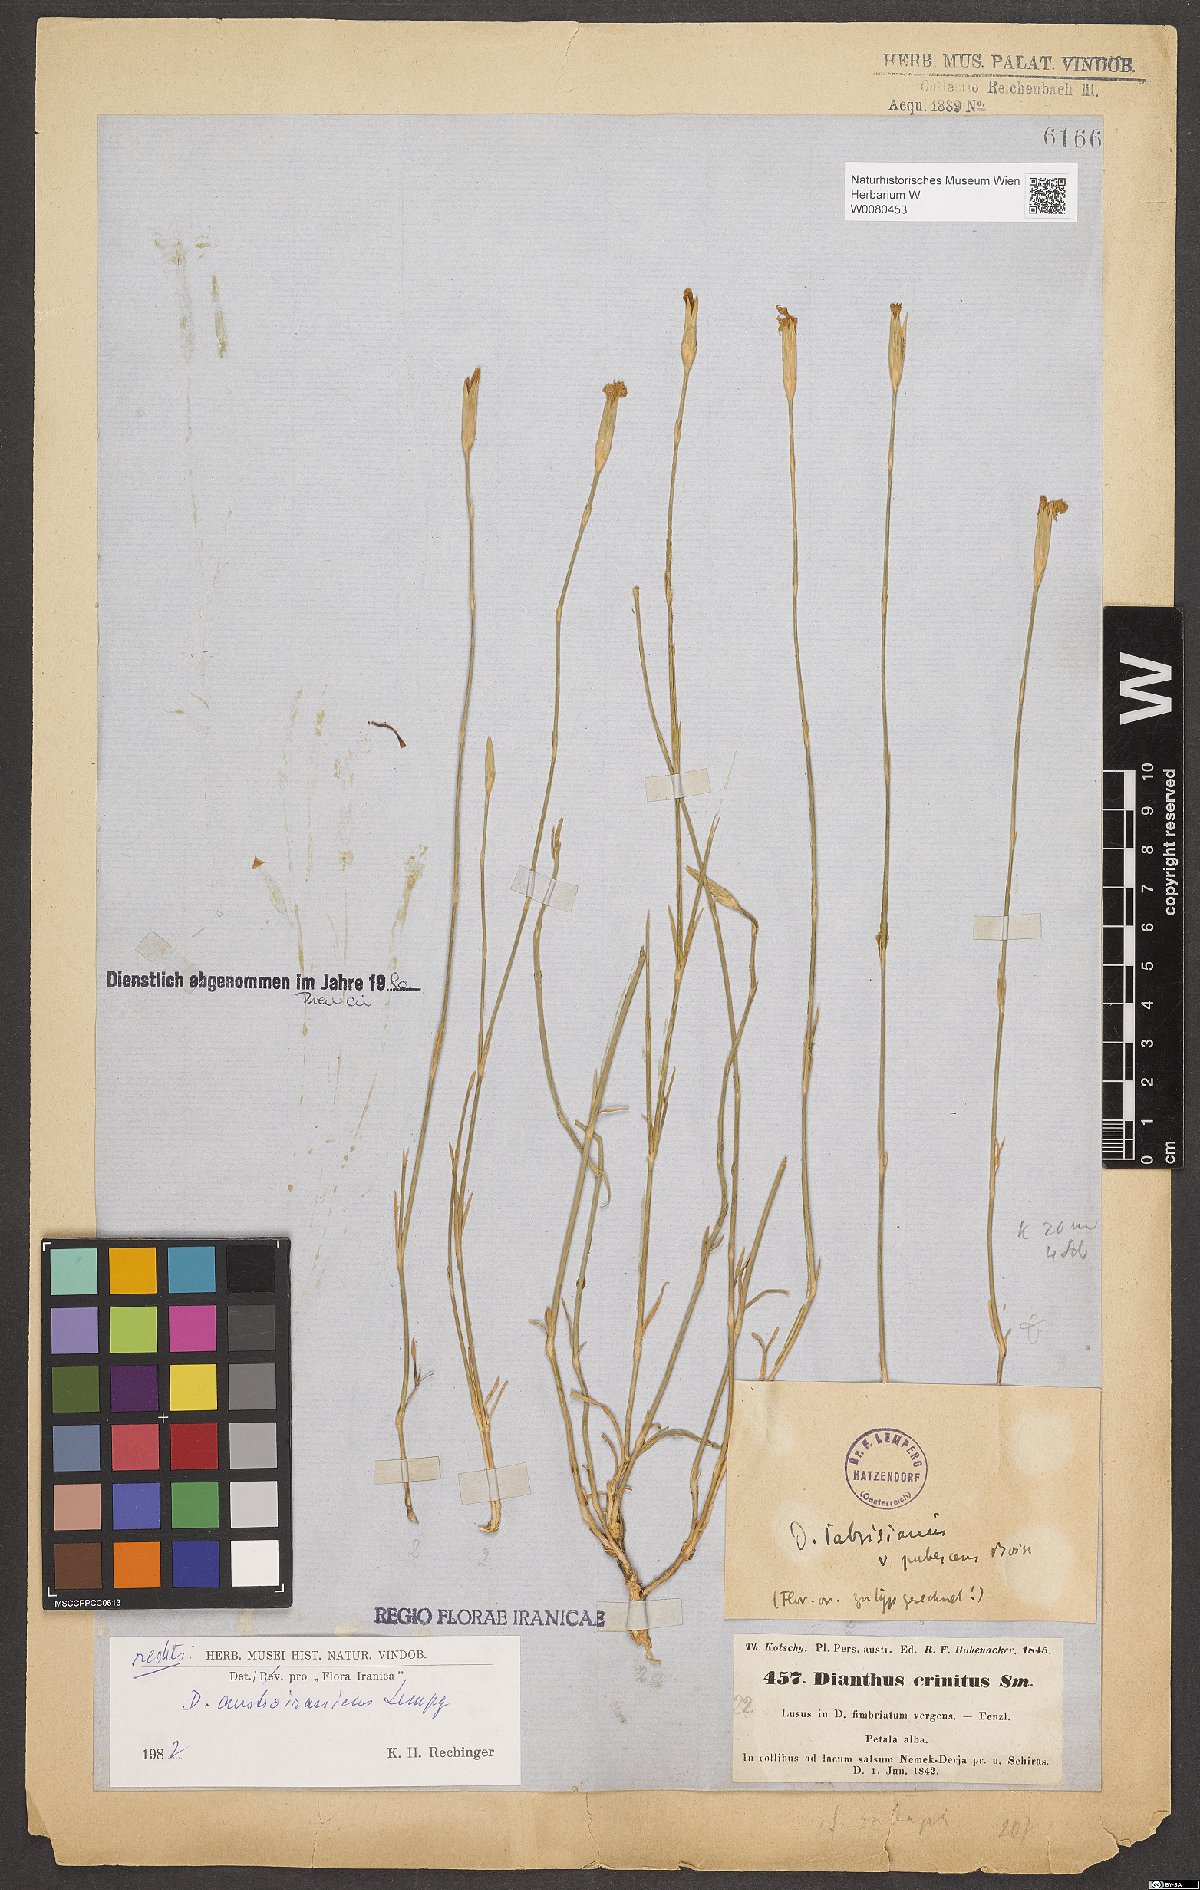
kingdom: Plantae
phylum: Tracheophyta
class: Magnoliopsida
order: Caryophyllales
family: Caryophyllaceae
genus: Dianthus
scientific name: Dianthus austroiranicus
